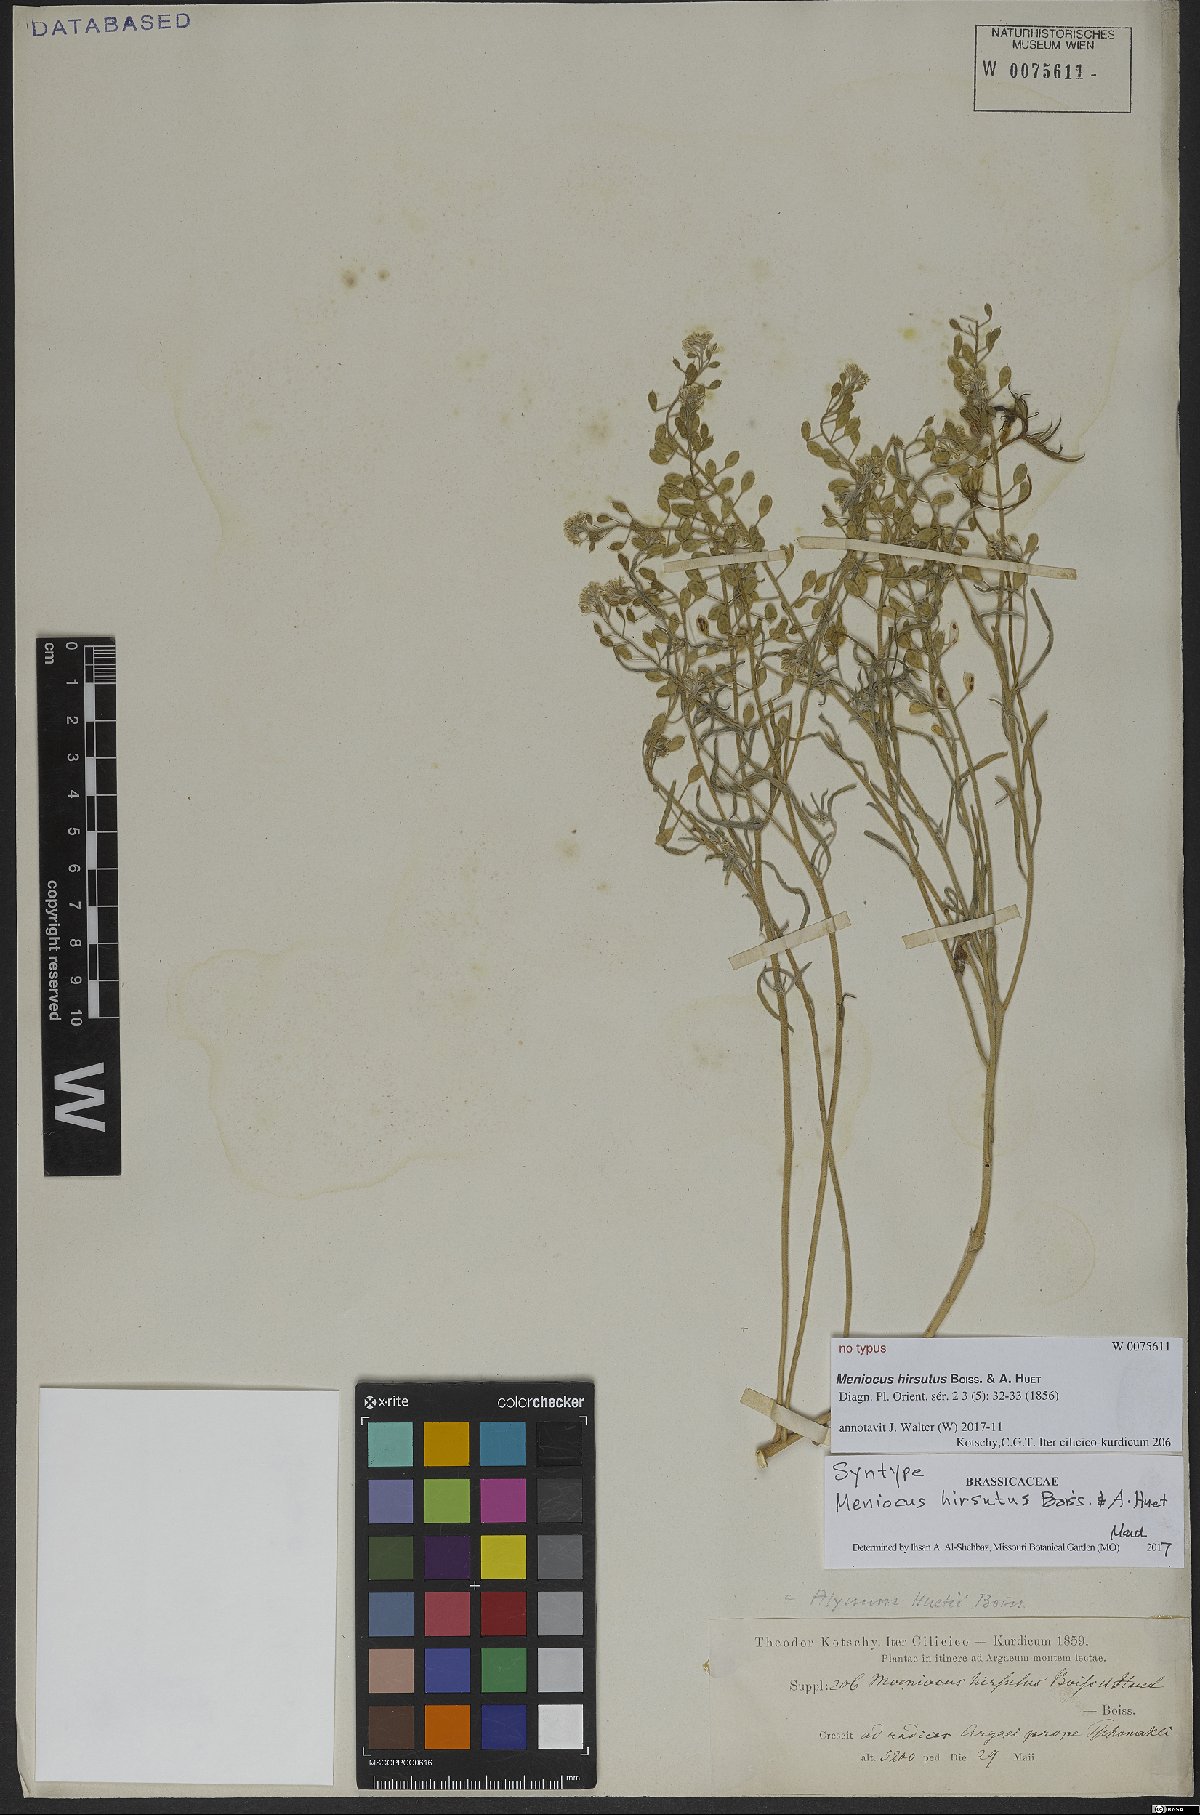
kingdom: Plantae
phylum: Tracheophyta
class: Magnoliopsida
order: Brassicales
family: Brassicaceae
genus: Meniocus
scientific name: Meniocus hirsutus
